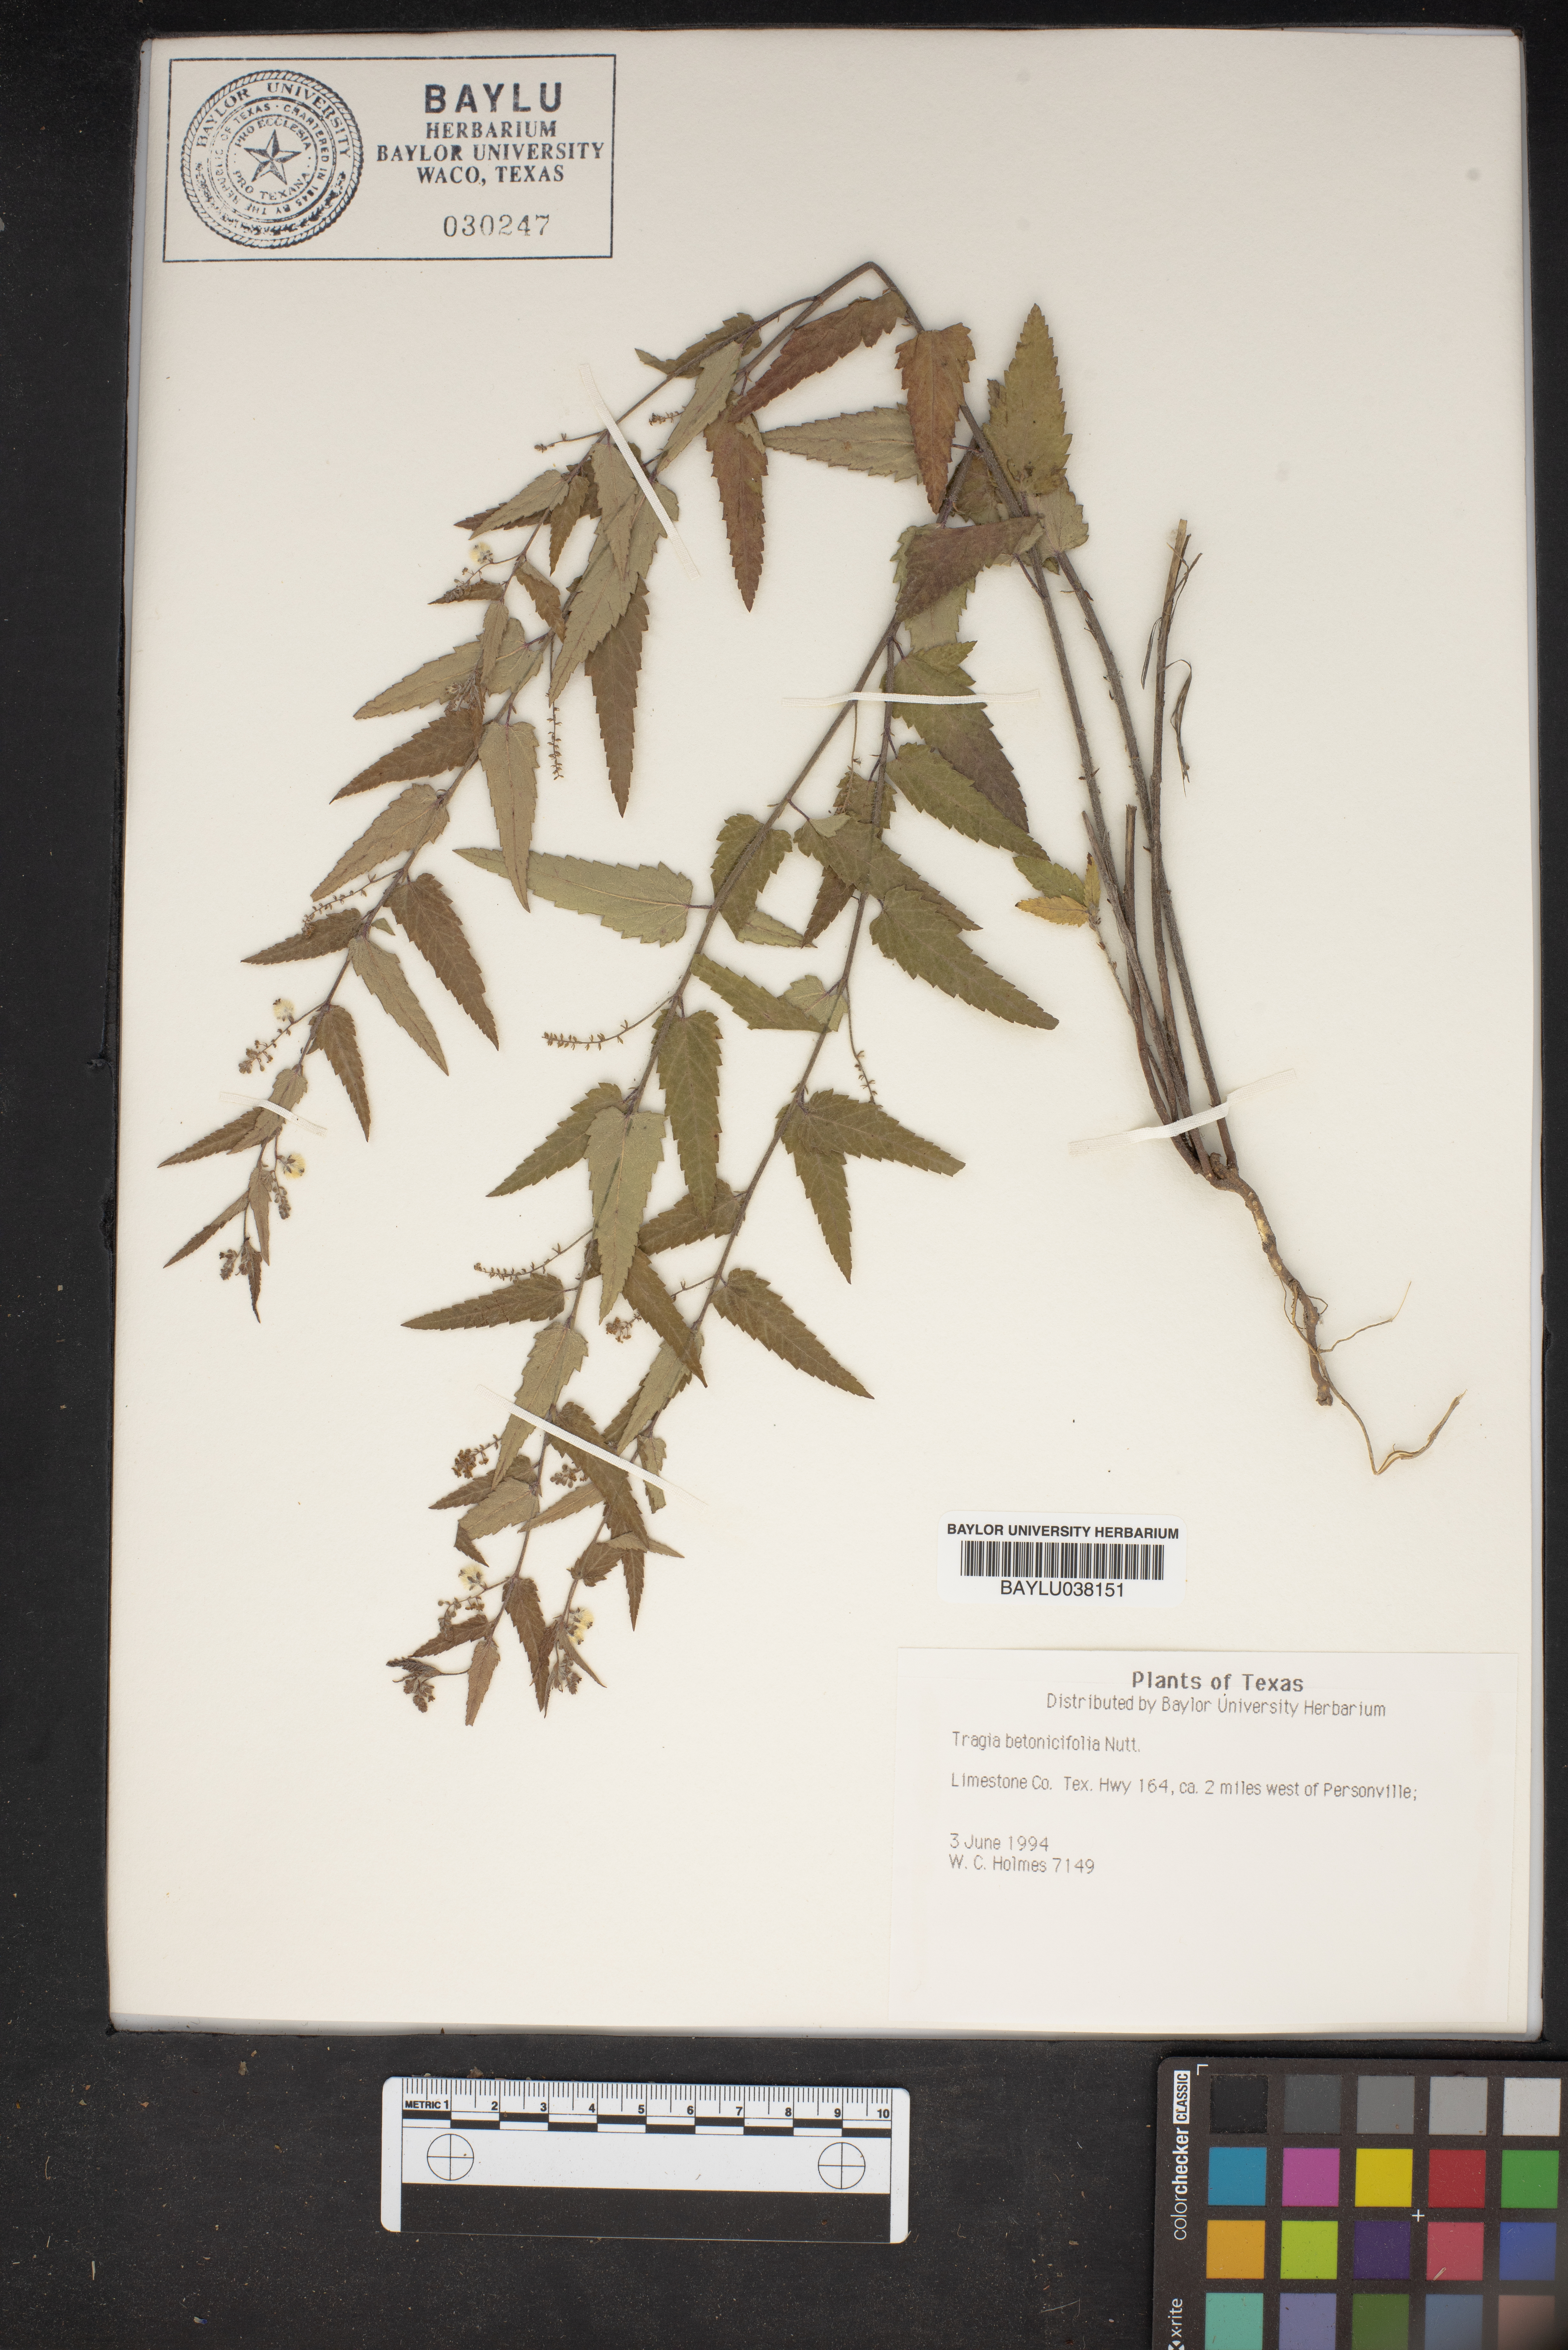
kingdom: Plantae
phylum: Tracheophyta
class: Magnoliopsida
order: Malpighiales
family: Euphorbiaceae
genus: Tragia
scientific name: Tragia betonicifolia
